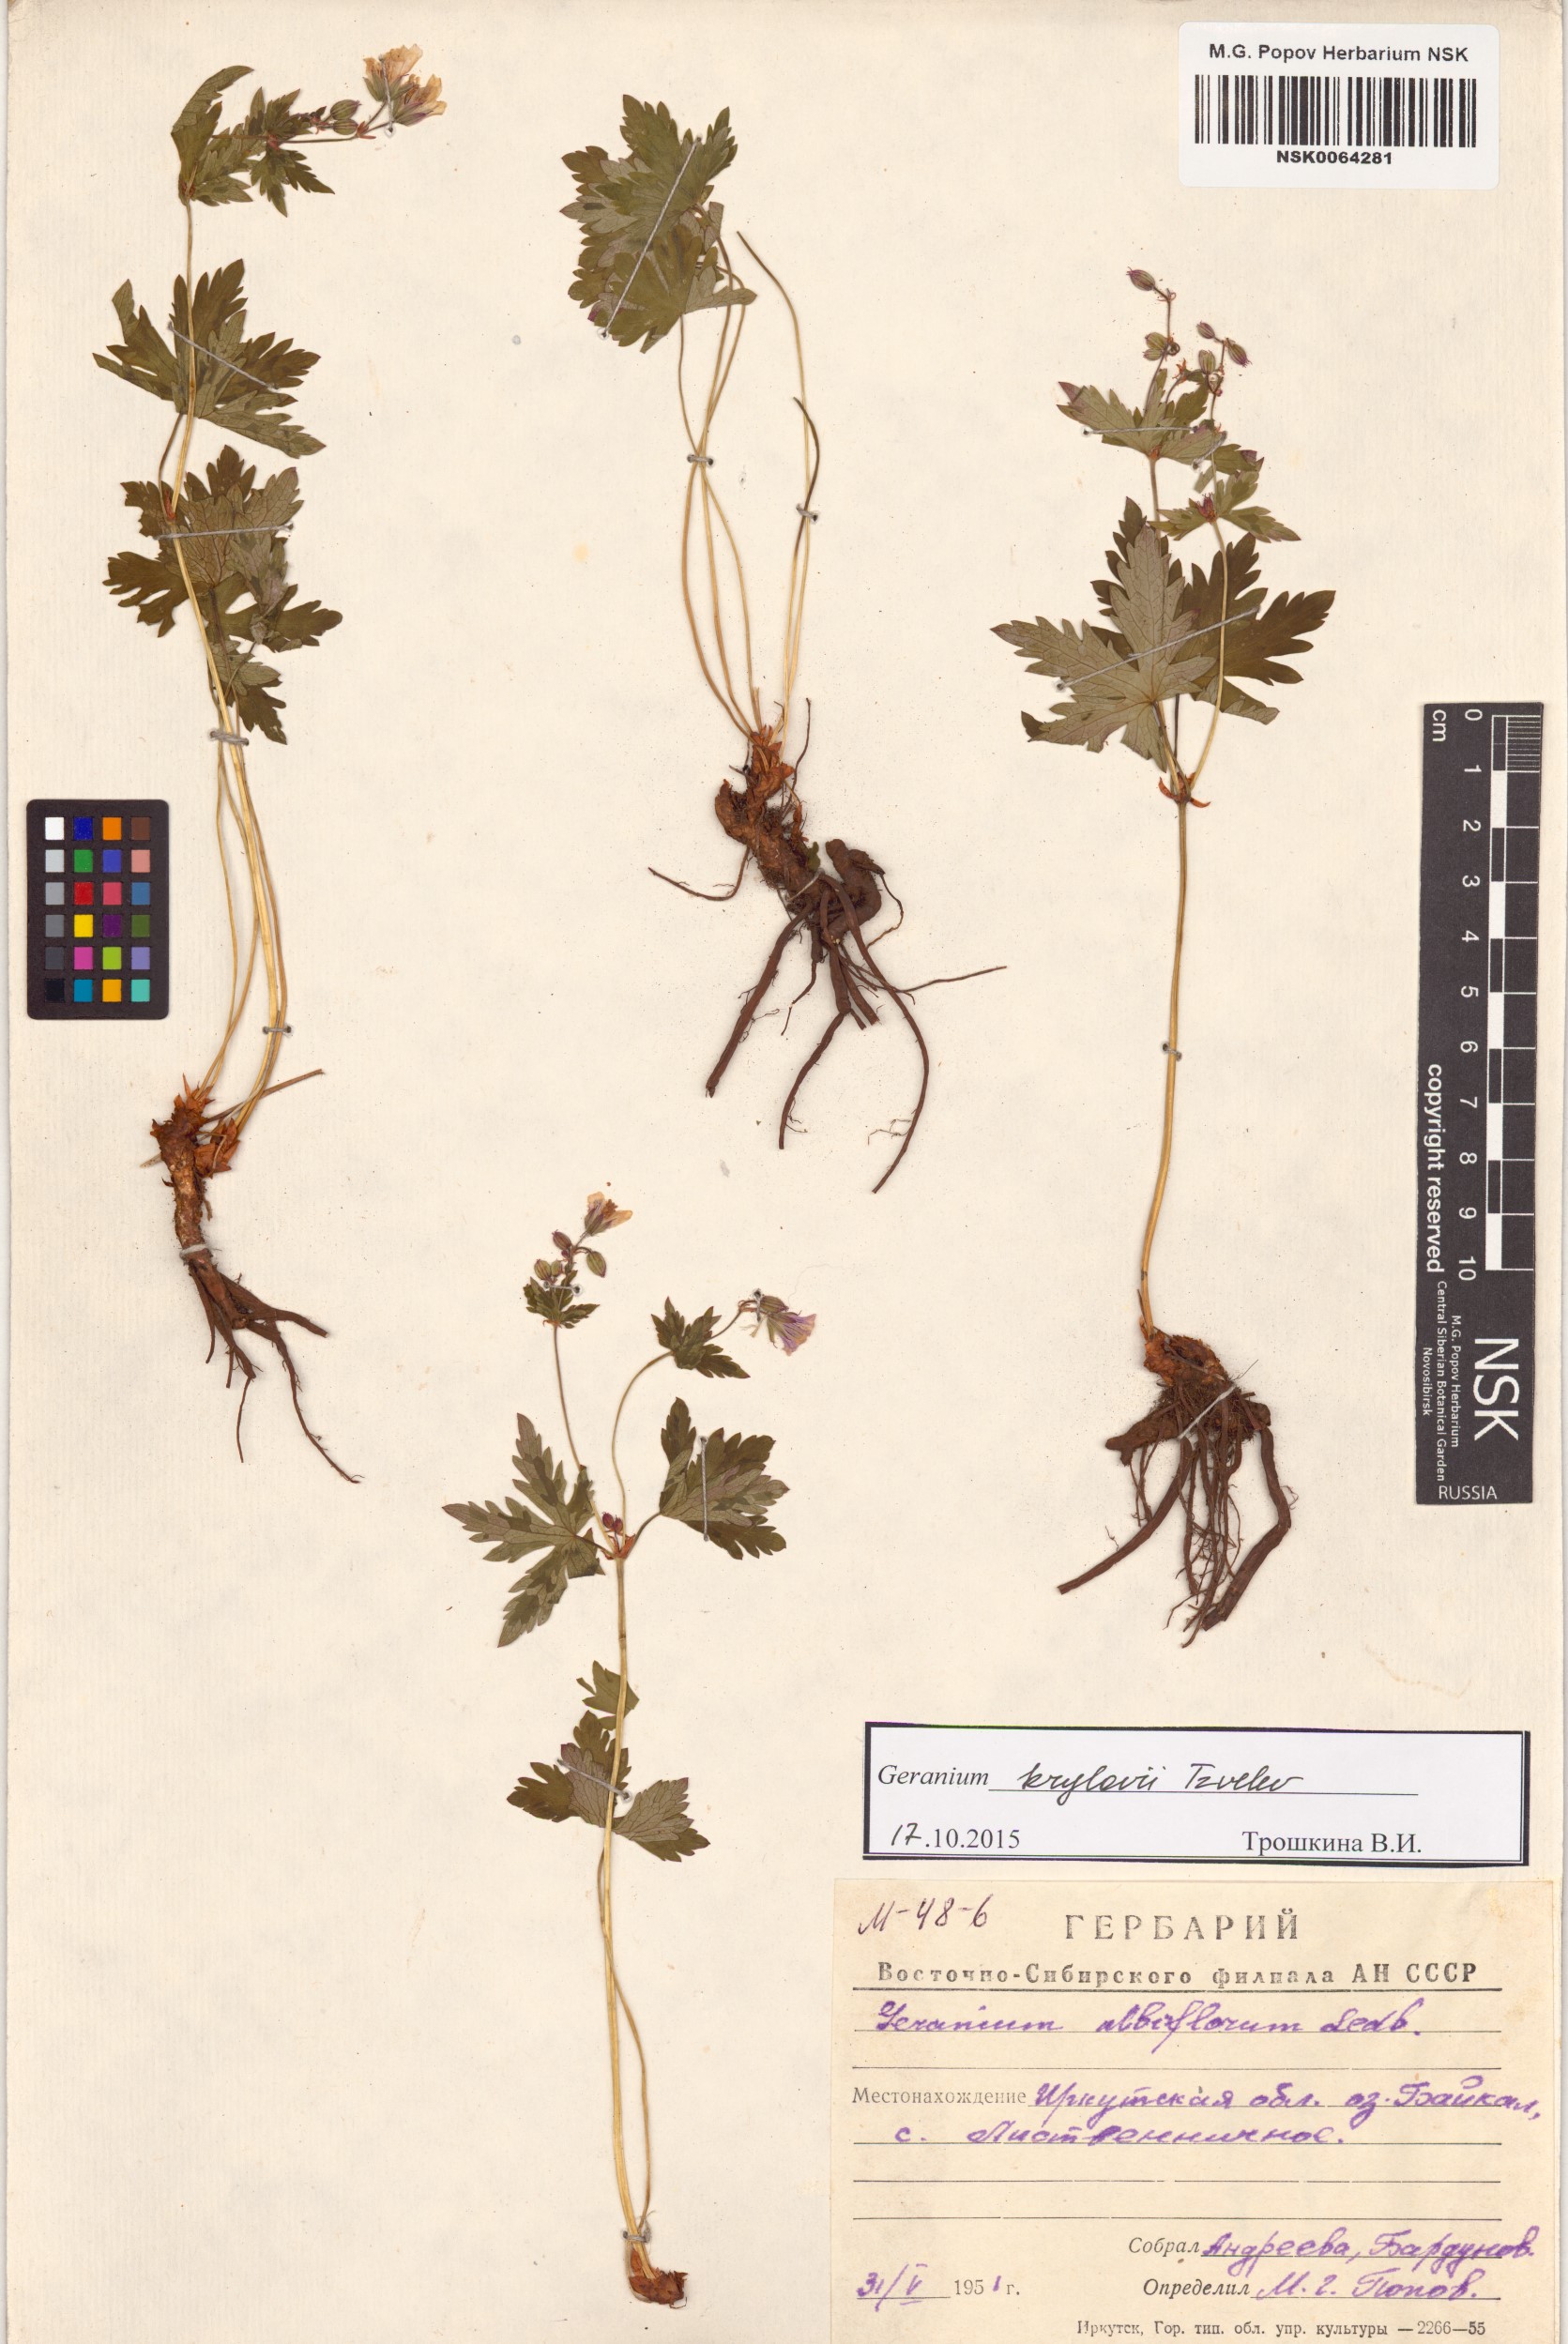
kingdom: Plantae
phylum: Tracheophyta
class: Magnoliopsida
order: Geraniales
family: Geraniaceae
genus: Geranium
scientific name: Geranium sylvaticum
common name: Wood crane's-bill
